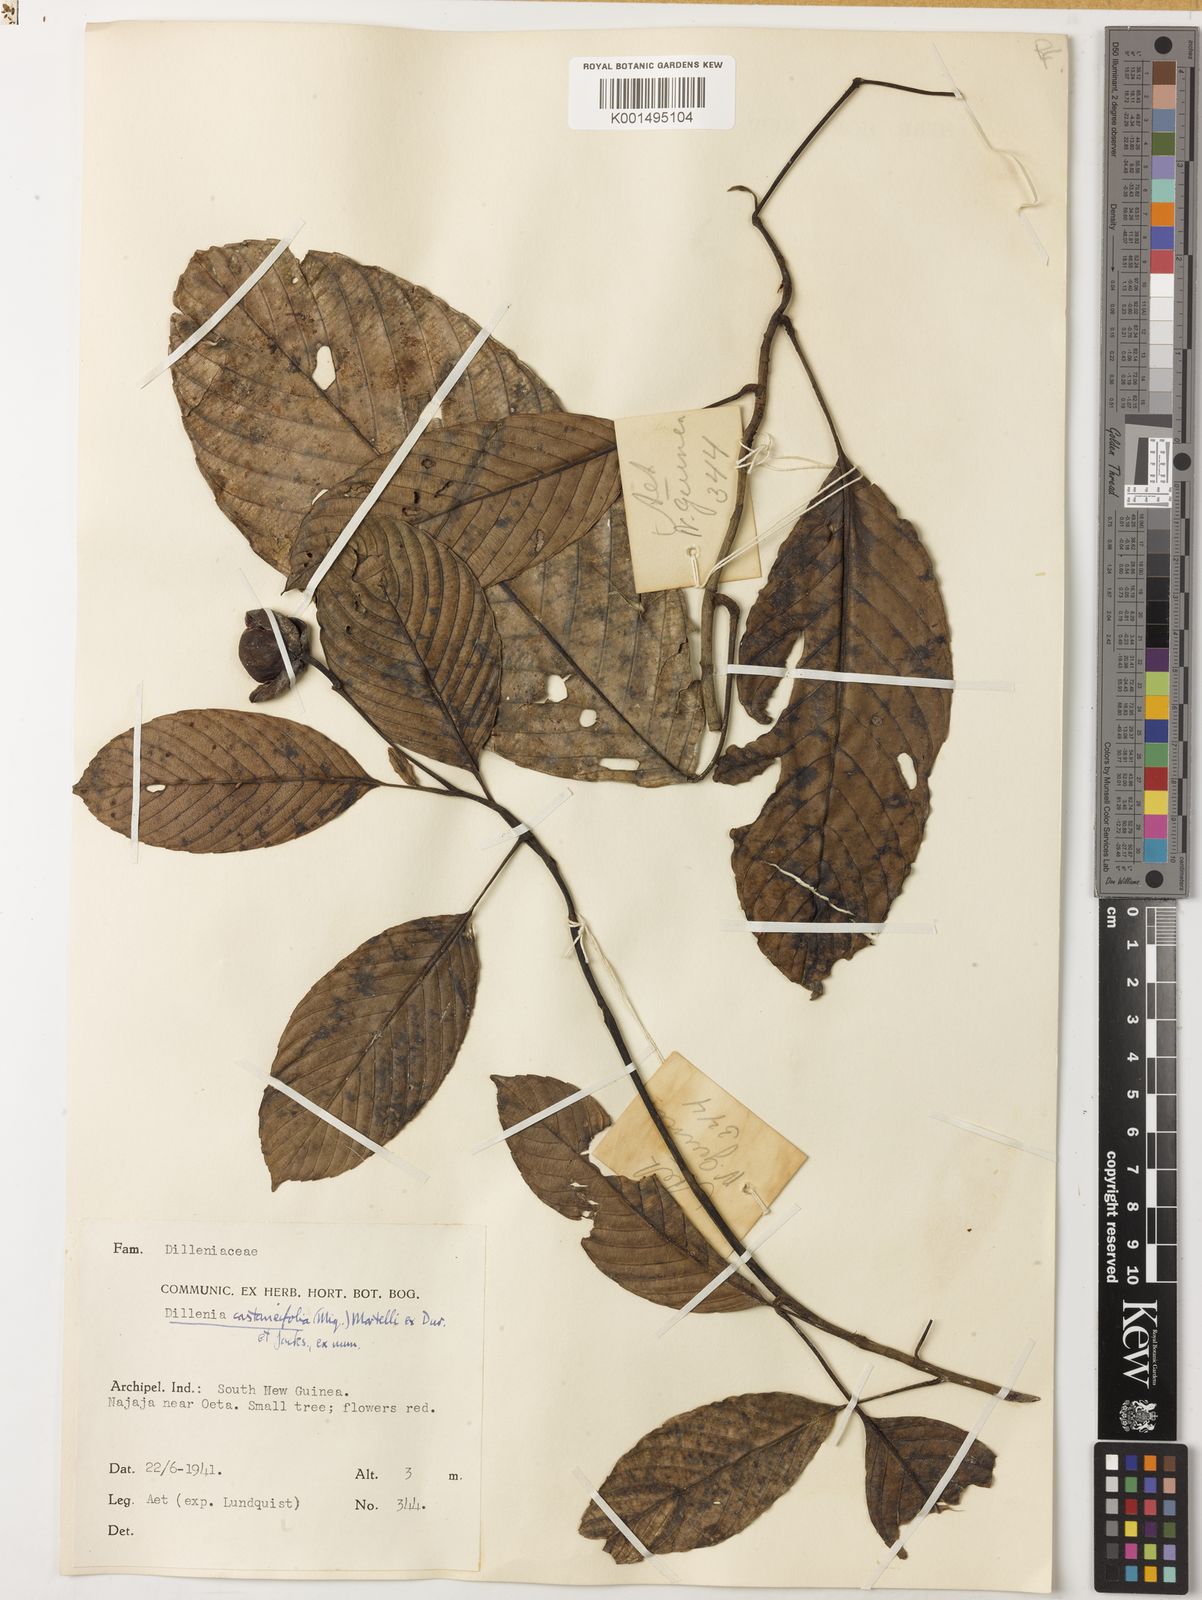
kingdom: Plantae
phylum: Tracheophyta
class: Magnoliopsida
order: Dilleniales
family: Dilleniaceae
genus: Dillenia
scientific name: Dillenia castaneifolia
